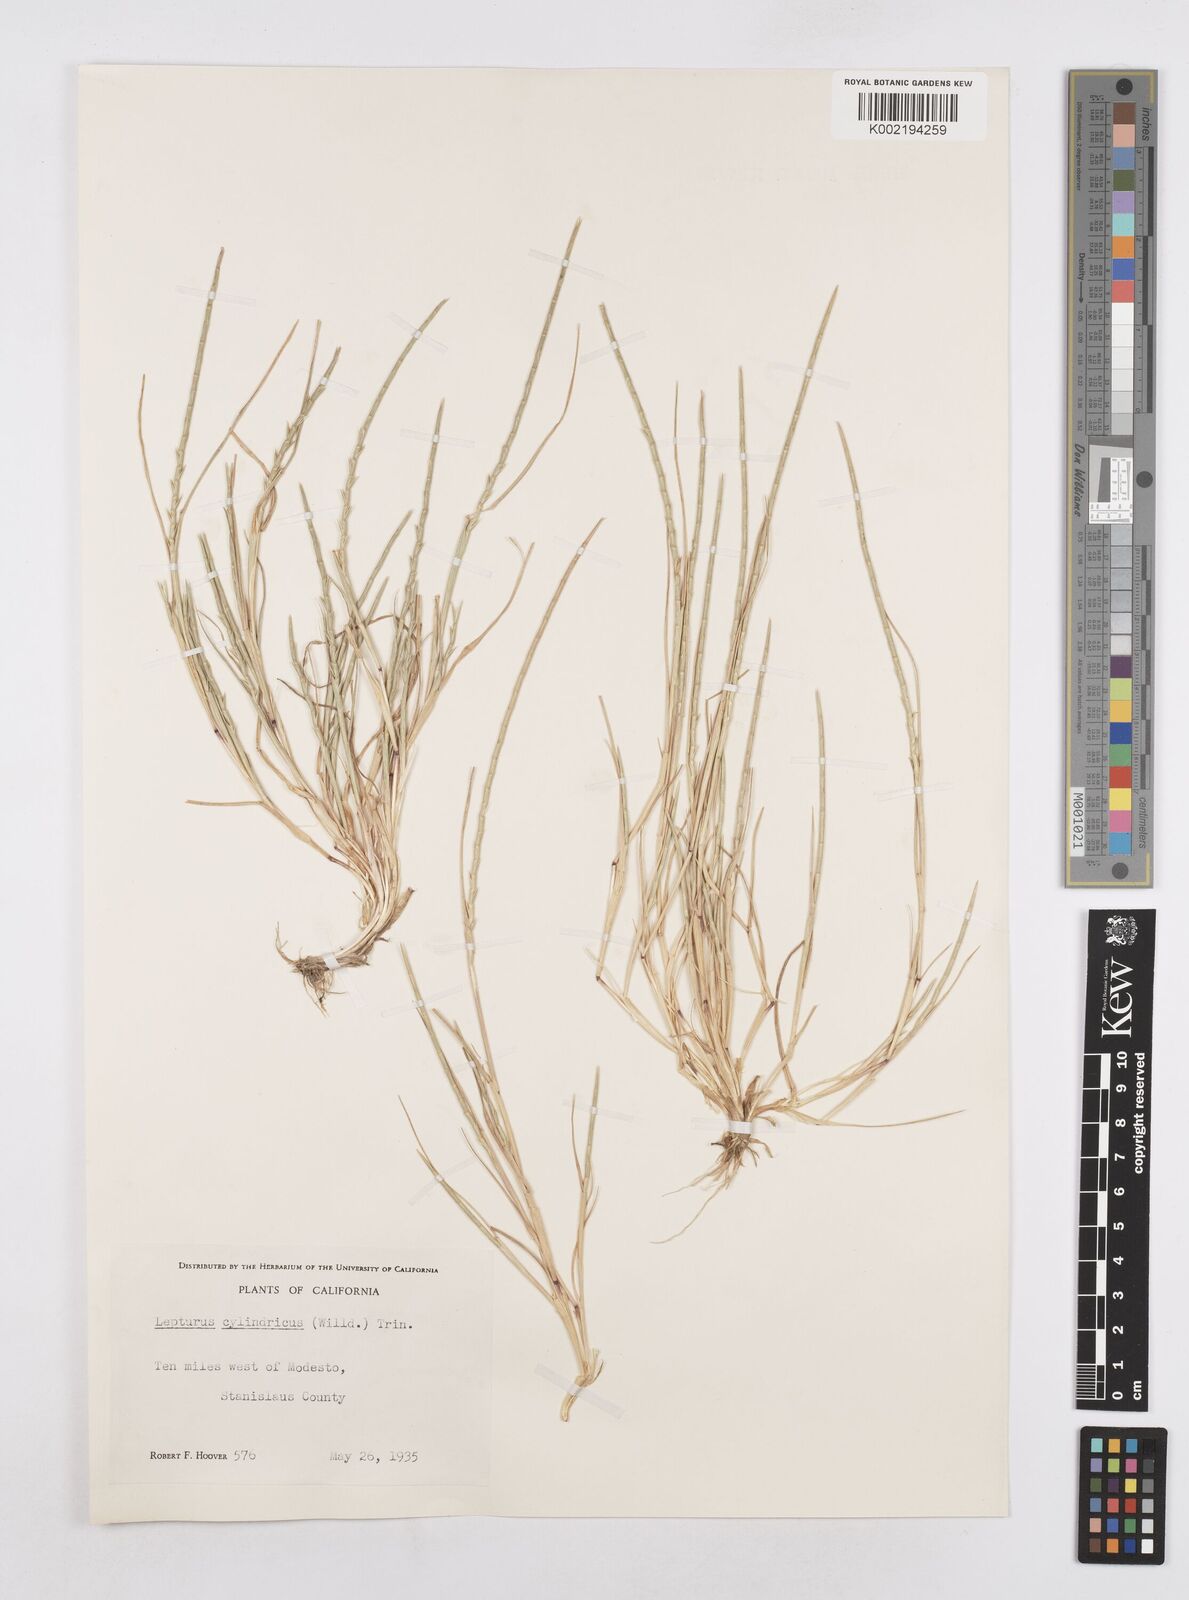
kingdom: Plantae
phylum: Tracheophyta
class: Liliopsida
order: Poales
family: Poaceae
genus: Parapholis
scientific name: Parapholis cylindrica
